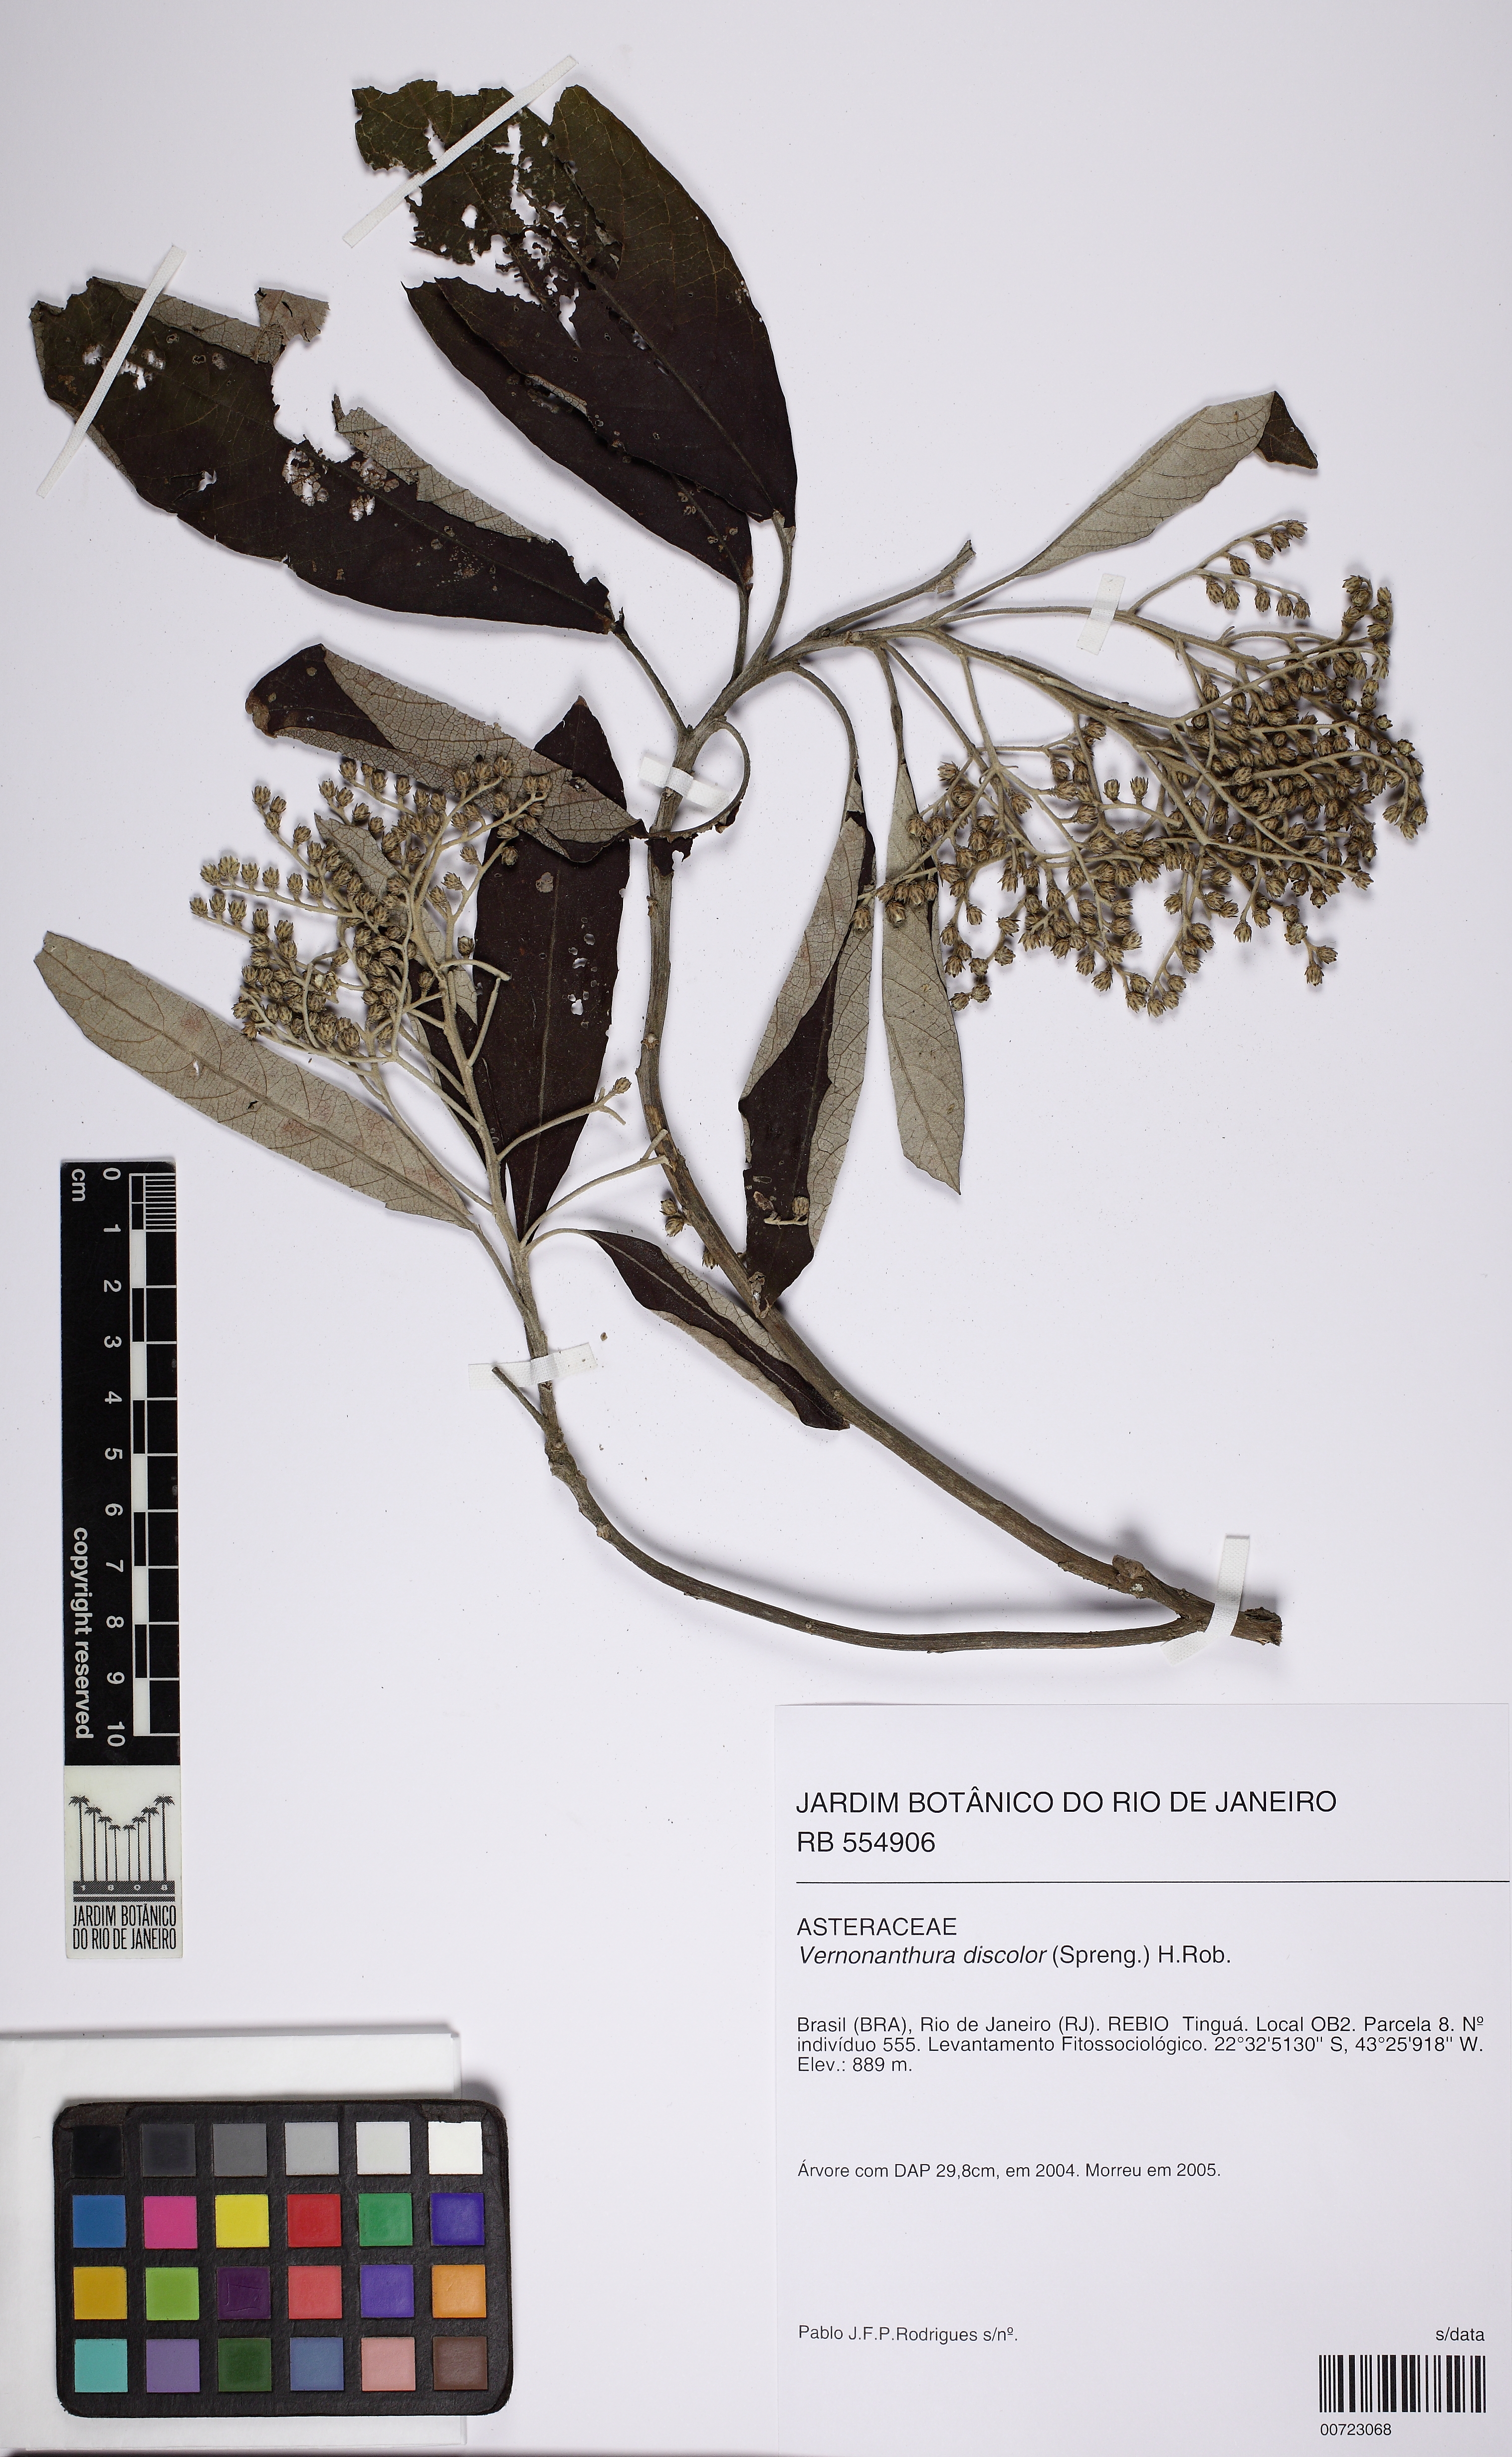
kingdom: Plantae
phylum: Tracheophyta
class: Magnoliopsida
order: Asterales
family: Asteraceae
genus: Vernonanthura
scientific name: Vernonanthura discolor
